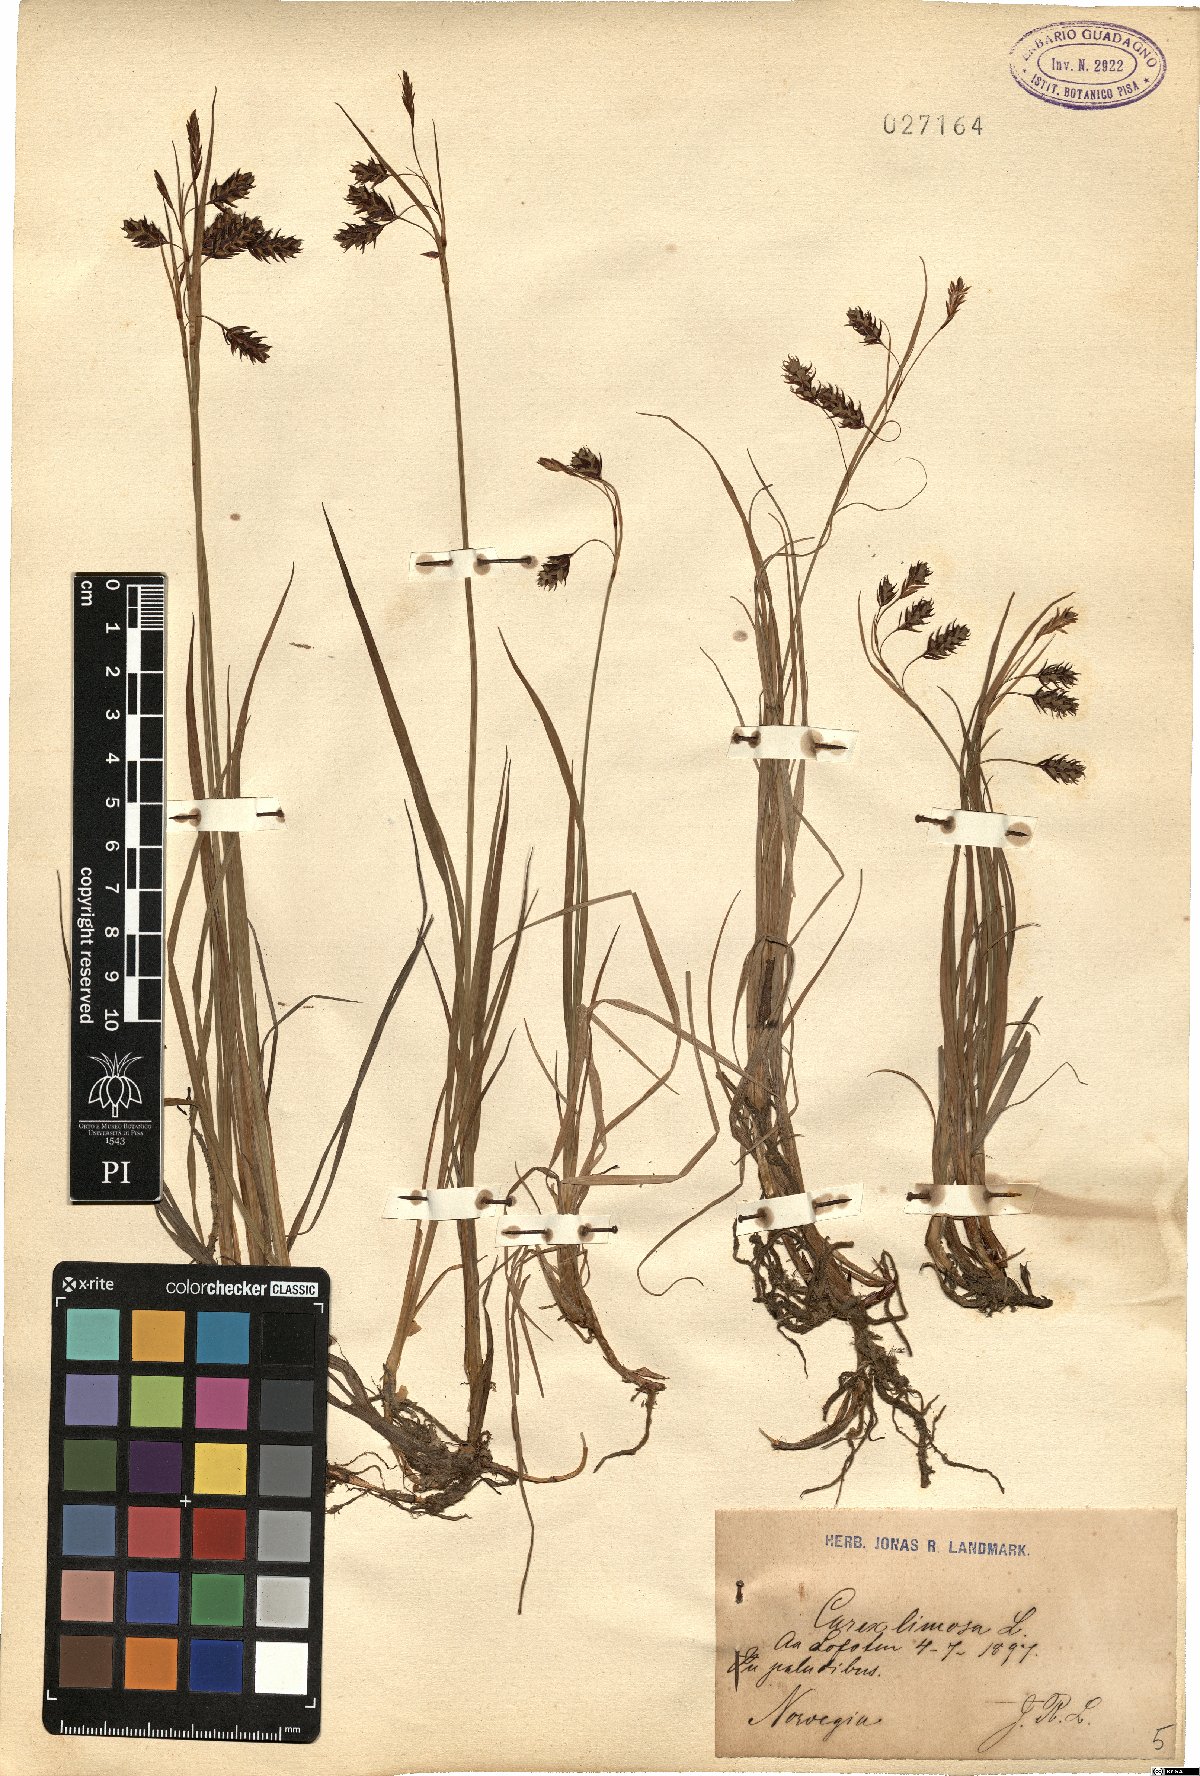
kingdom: Plantae
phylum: Tracheophyta
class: Liliopsida
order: Poales
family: Cyperaceae
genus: Carex
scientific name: Carex limosa
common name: Bog sedge
